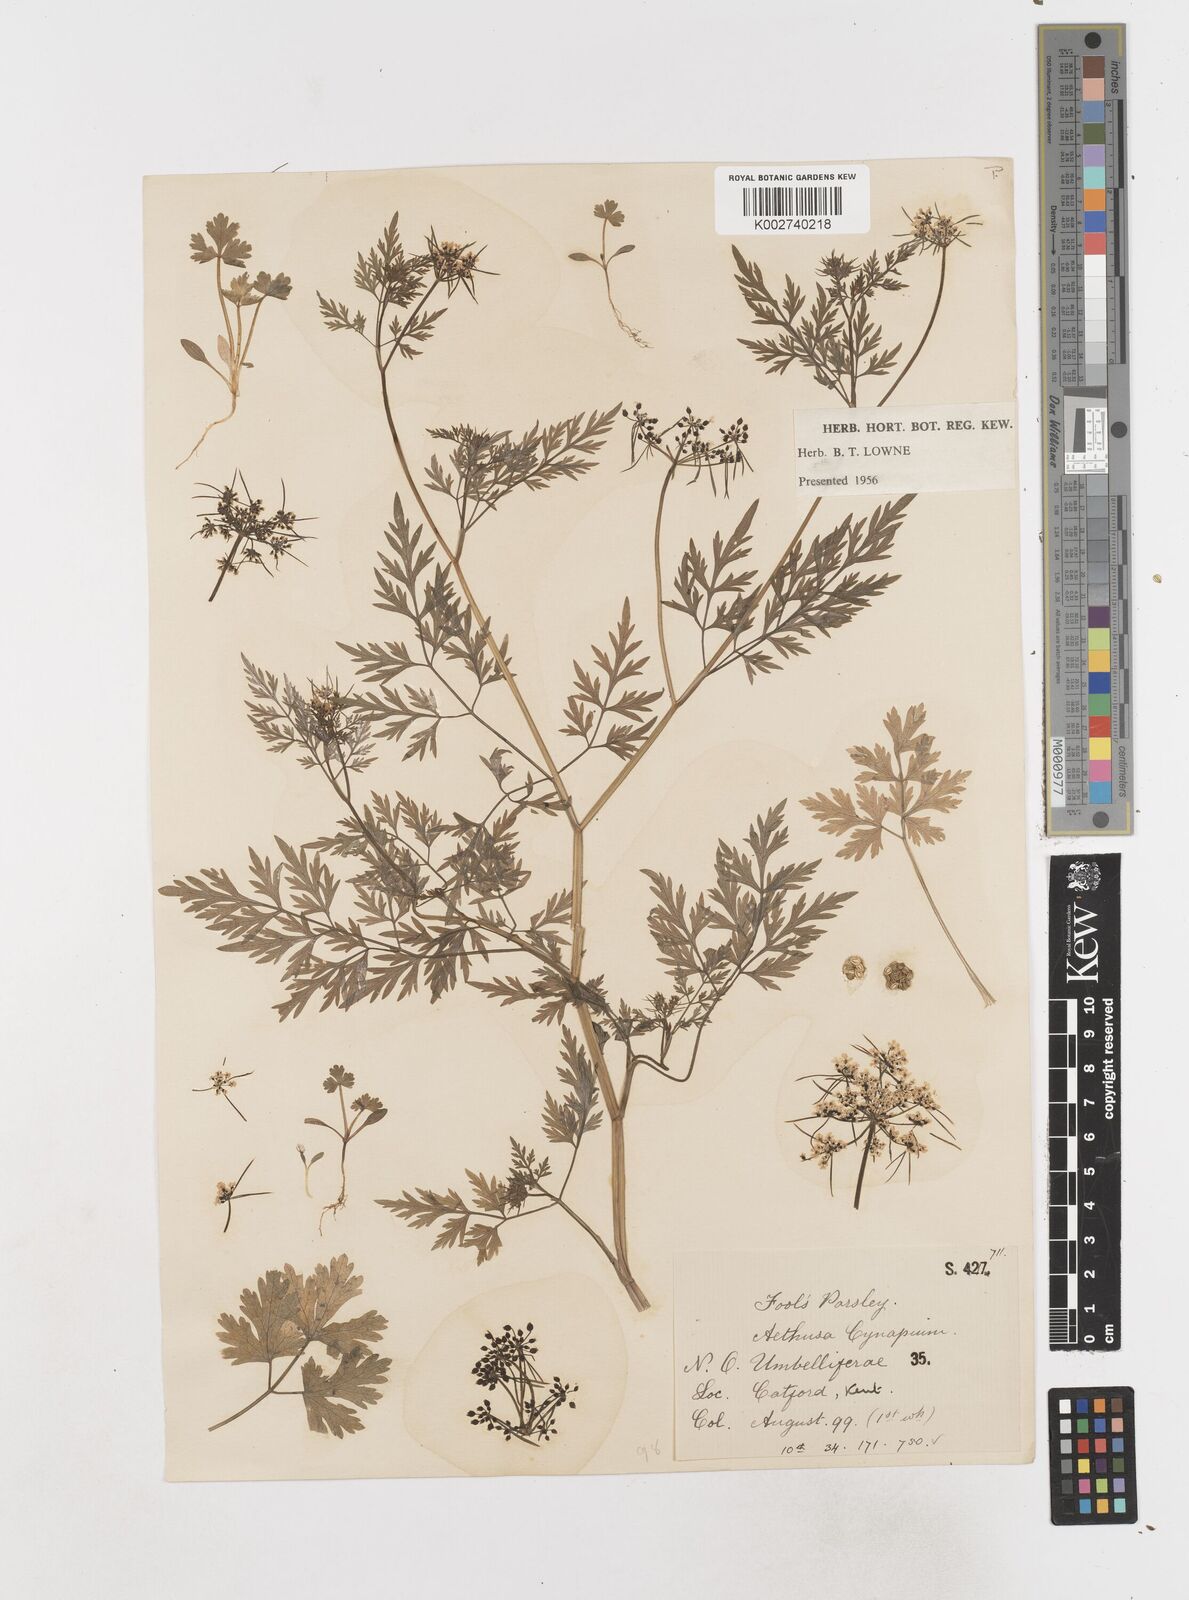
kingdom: Plantae
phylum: Tracheophyta
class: Magnoliopsida
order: Apiales
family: Apiaceae
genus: Aethusa
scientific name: Aethusa cynapium
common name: Fool's parsley
